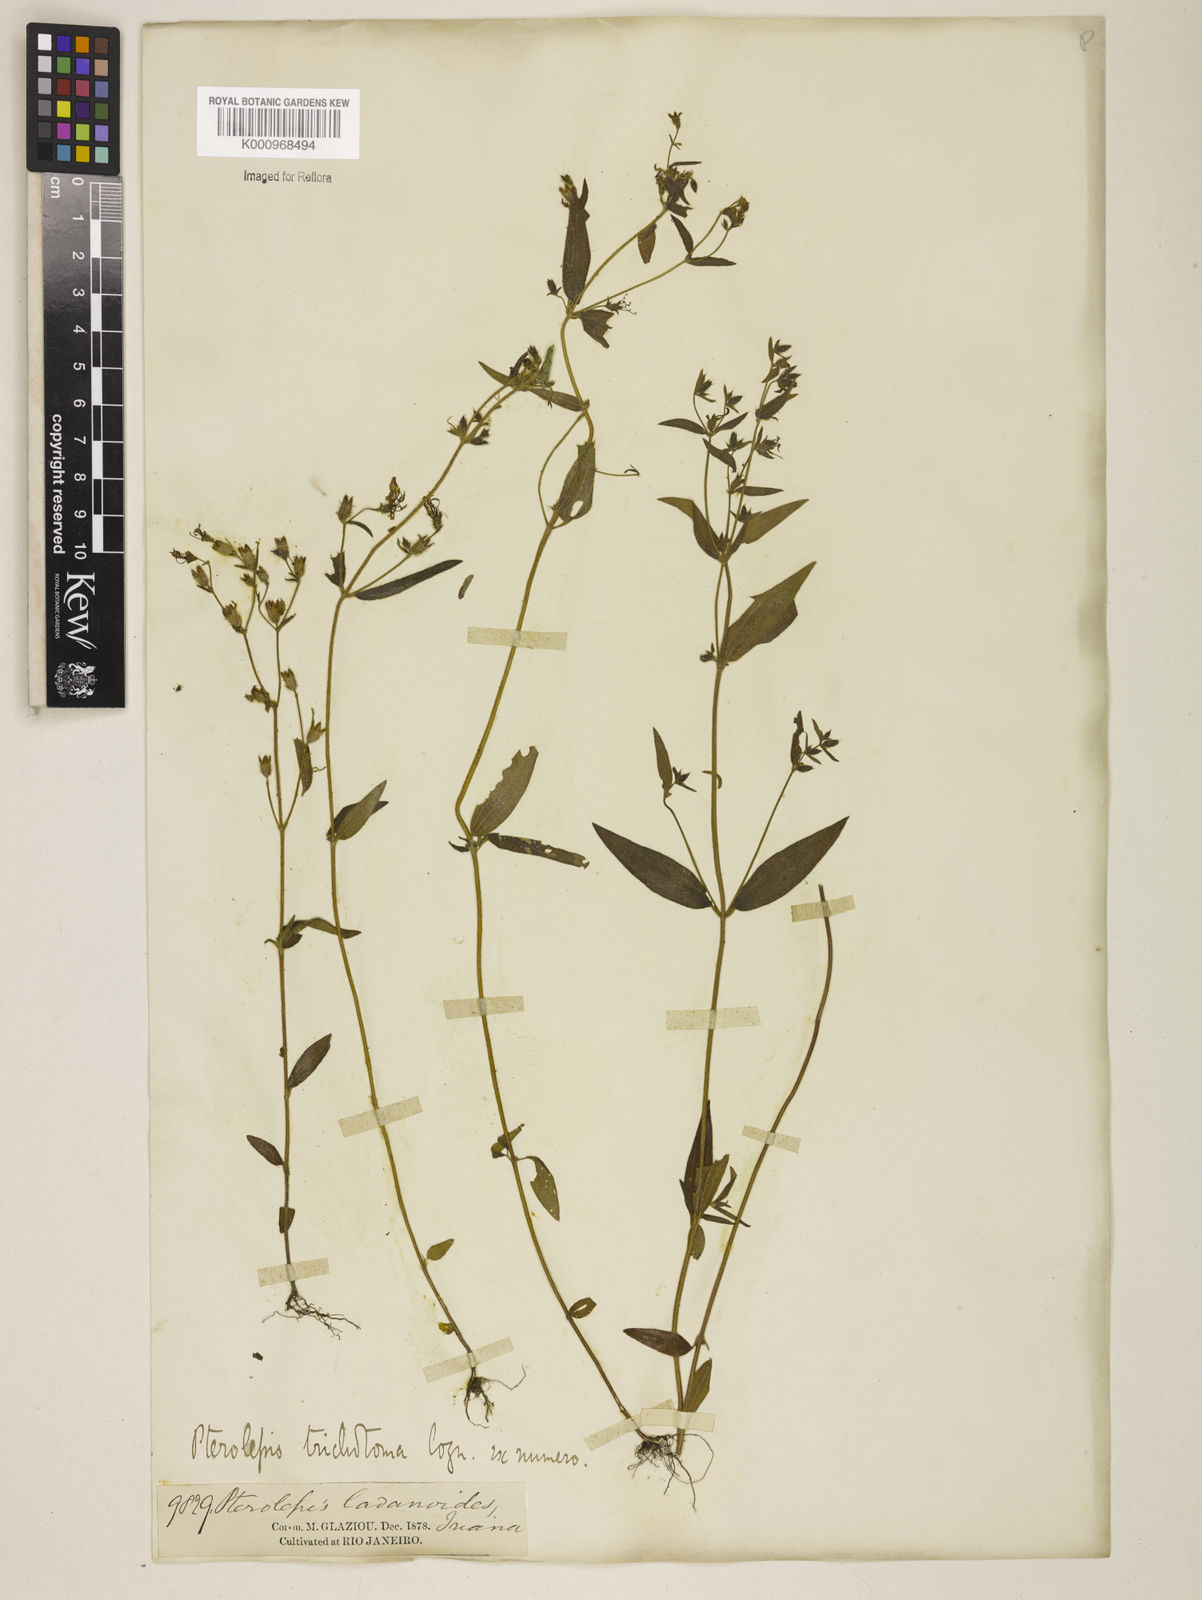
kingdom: Plantae
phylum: Tracheophyta
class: Magnoliopsida
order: Myrtales
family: Melastomataceae
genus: Pterolepis
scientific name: Pterolepis trichotoma
